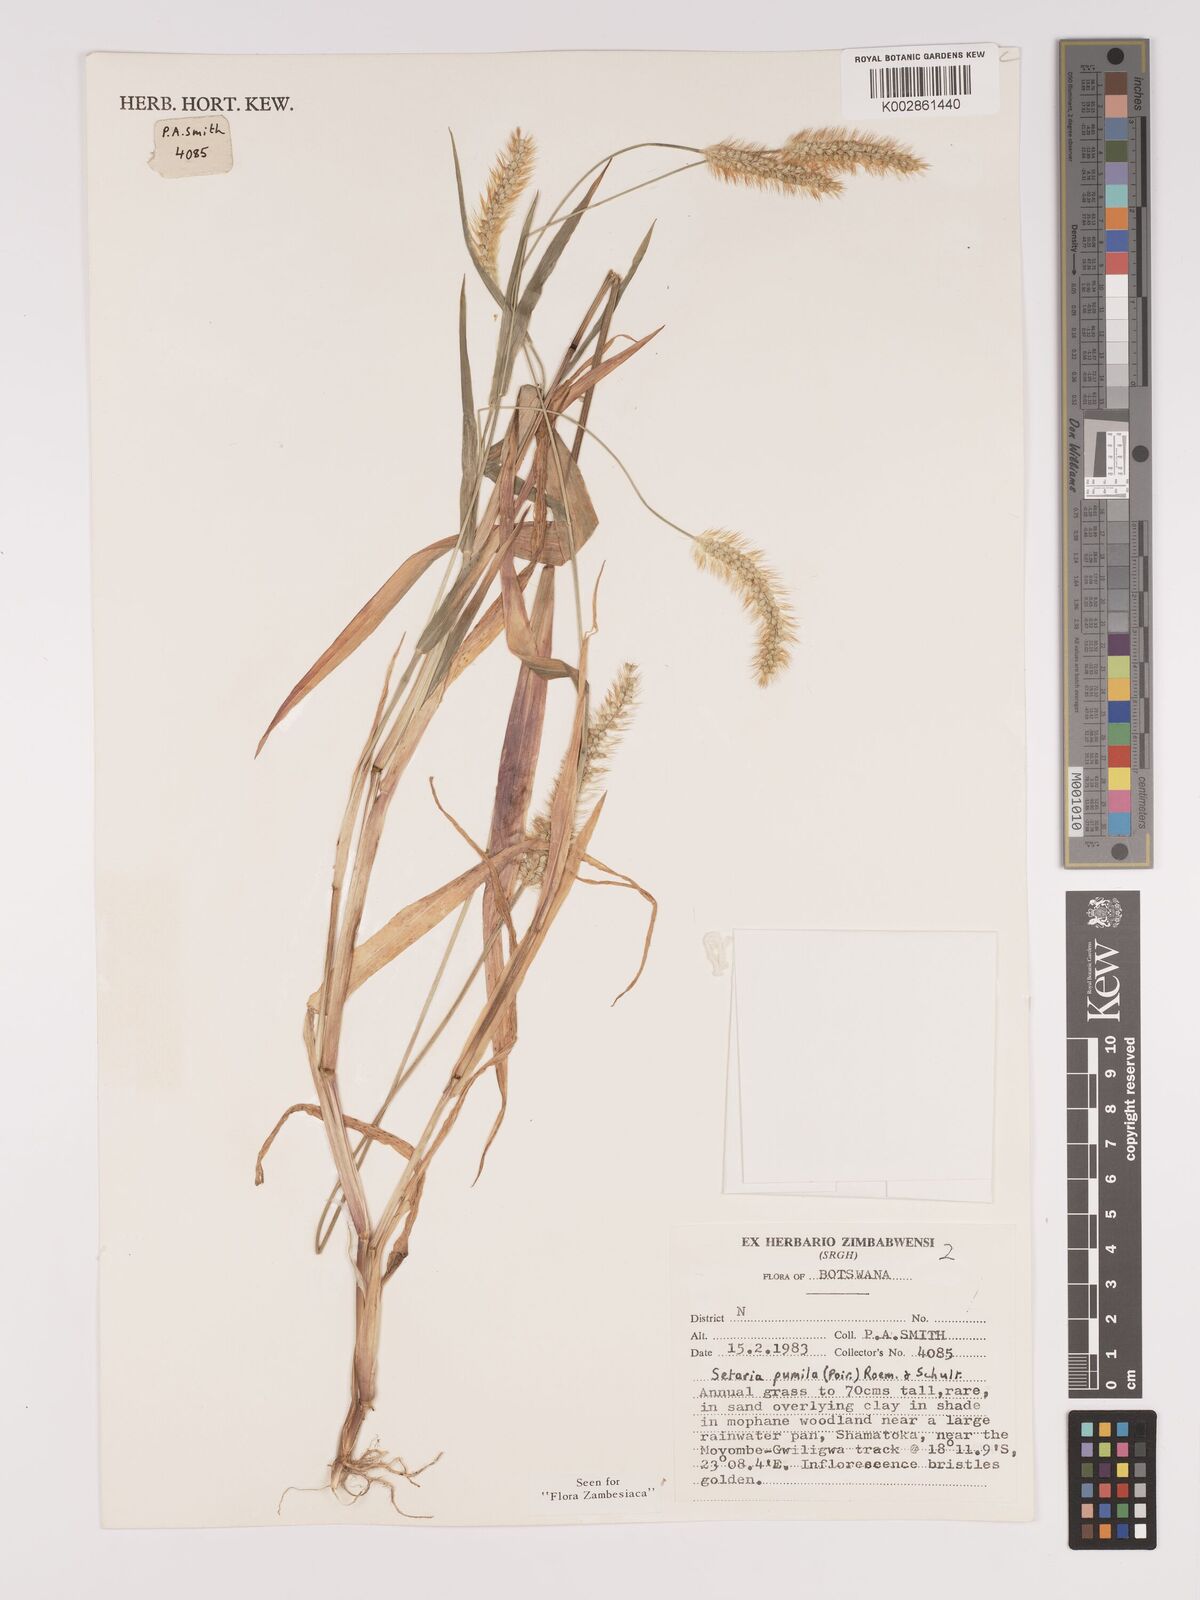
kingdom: Plantae
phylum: Tracheophyta
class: Liliopsida
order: Poales
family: Poaceae
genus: Setaria
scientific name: Setaria pumila
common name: Yellow bristle-grass
